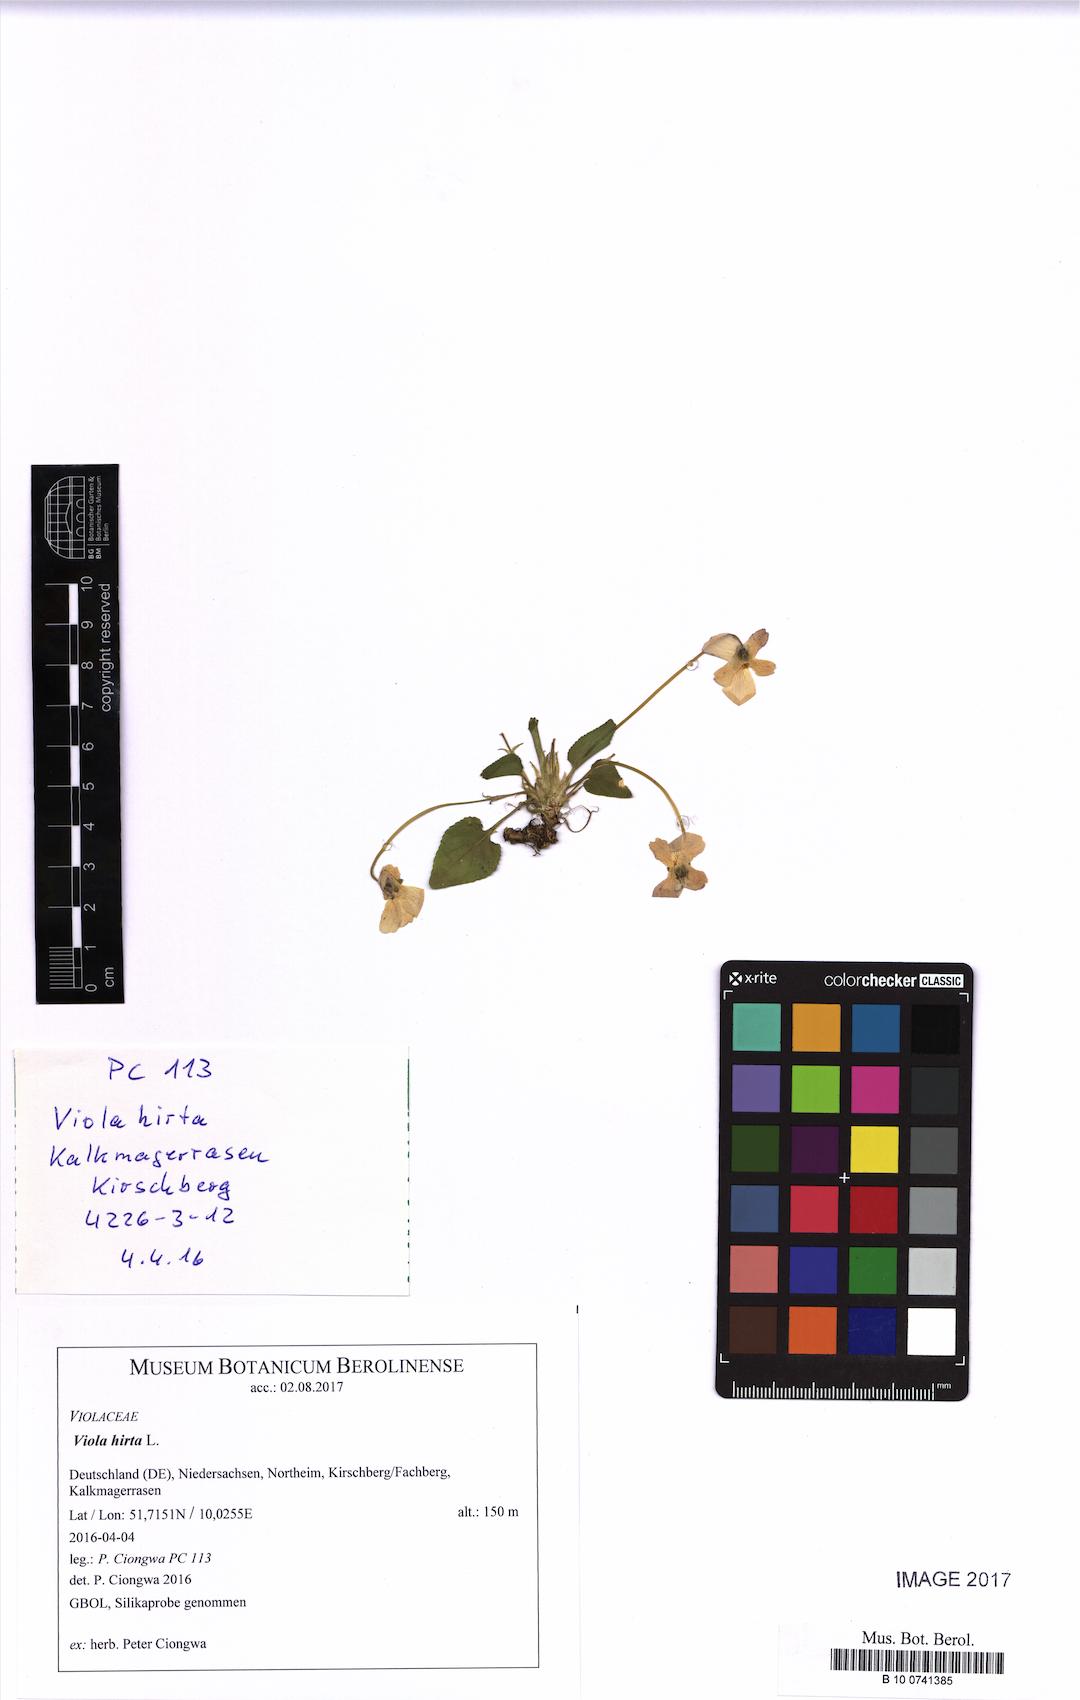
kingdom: Plantae
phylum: Tracheophyta
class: Magnoliopsida
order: Malpighiales
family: Violaceae
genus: Viola
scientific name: Viola hirta
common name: Hairy violet
